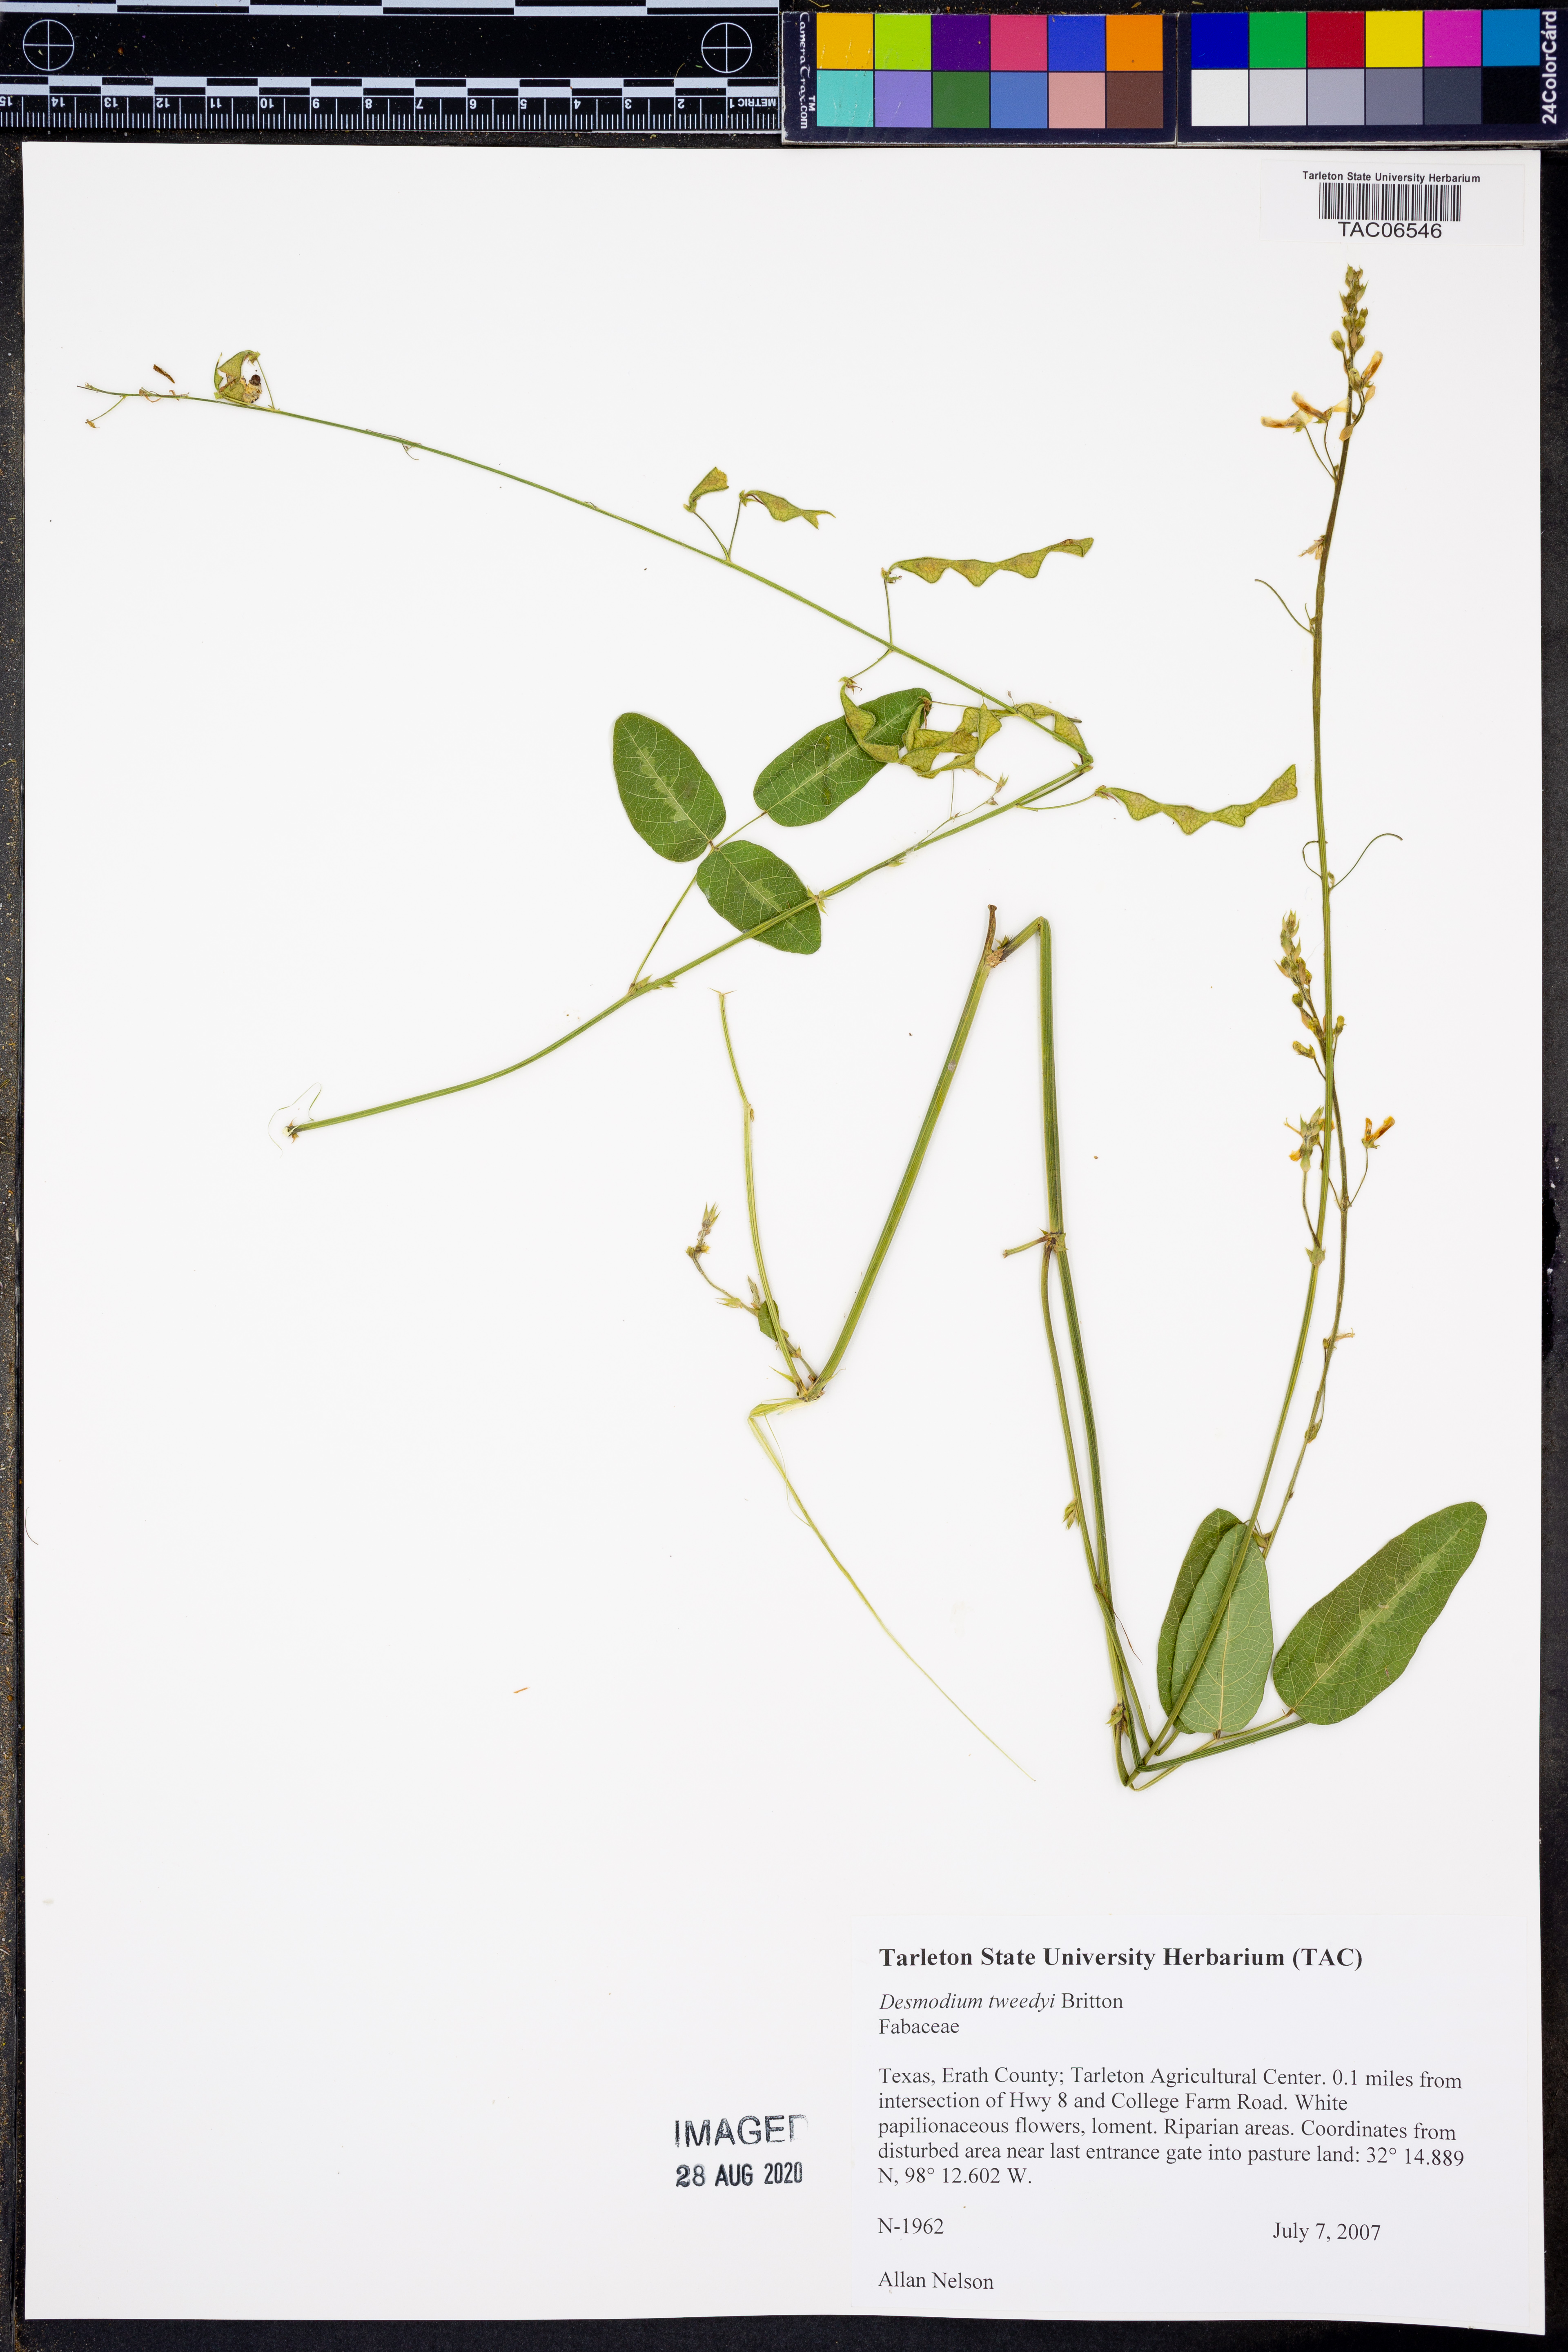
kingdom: Plantae
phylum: Tracheophyta
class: Magnoliopsida
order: Fabales
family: Fabaceae
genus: Desmodium
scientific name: Desmodium tweedyi
